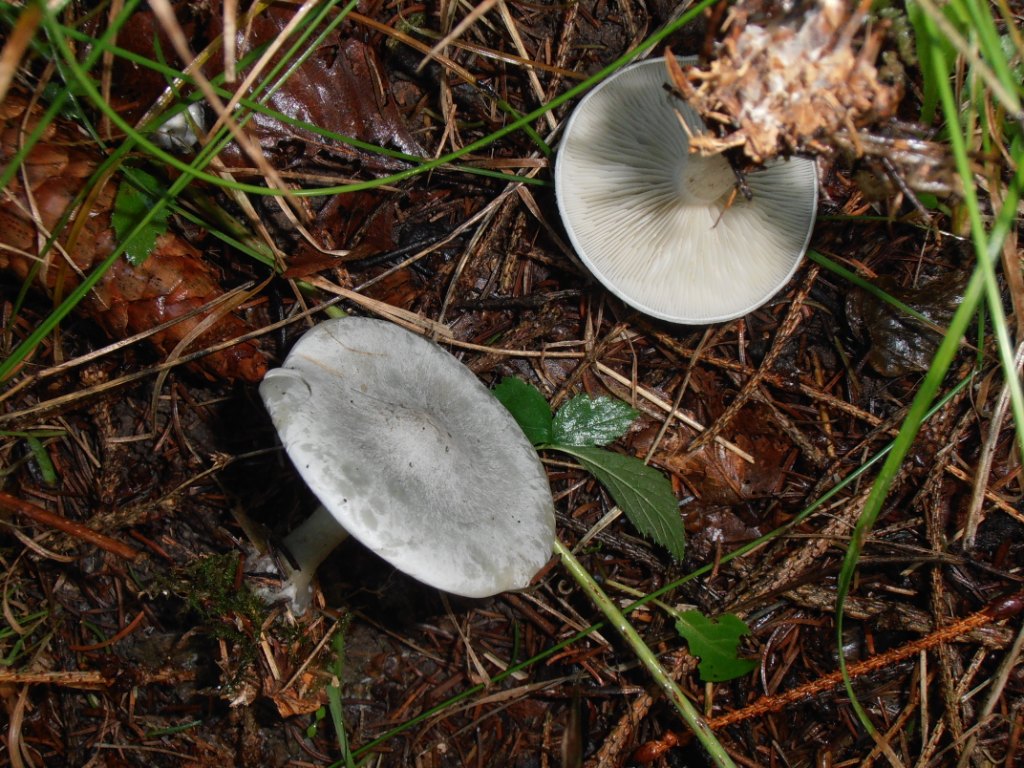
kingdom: Fungi
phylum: Basidiomycota
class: Agaricomycetes
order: Agaricales
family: Tricholomataceae
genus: Clitocybe
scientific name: Clitocybe odora
